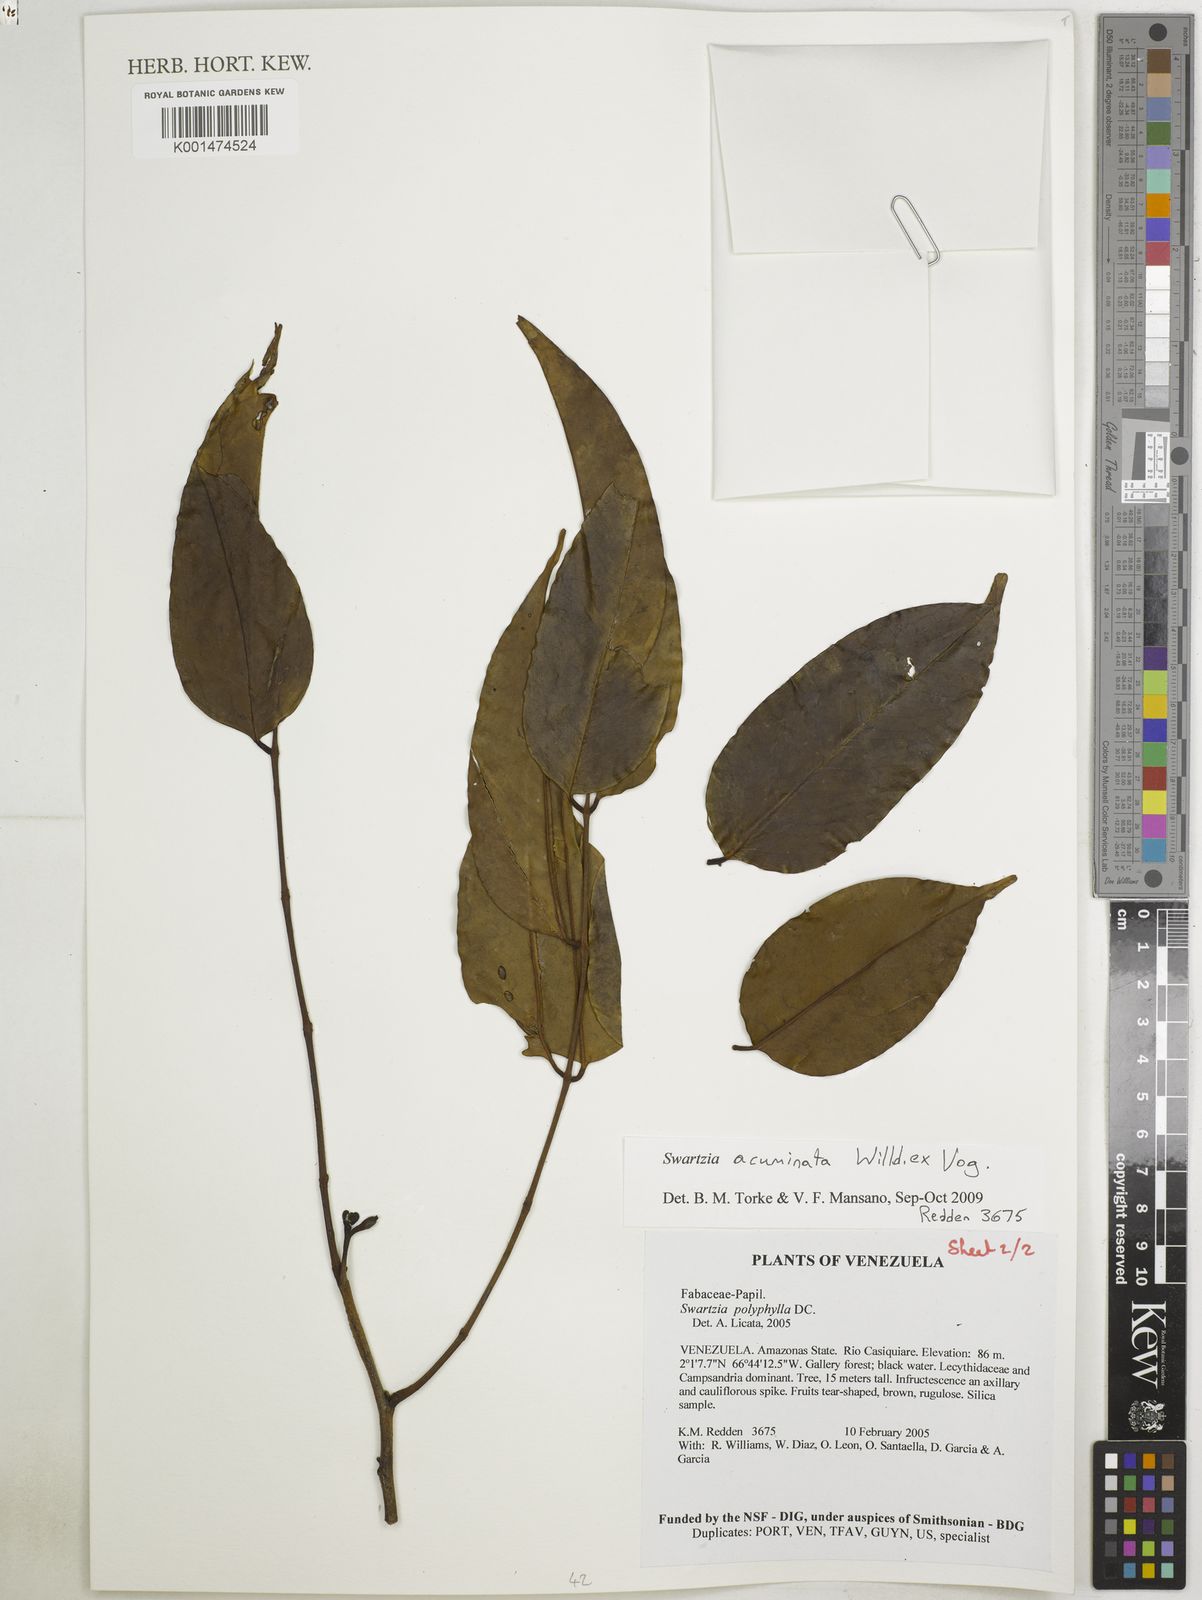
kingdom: Plantae
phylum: Tracheophyta
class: Magnoliopsida
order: Fabales
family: Fabaceae
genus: Swartzia
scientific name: Swartzia acuminata
